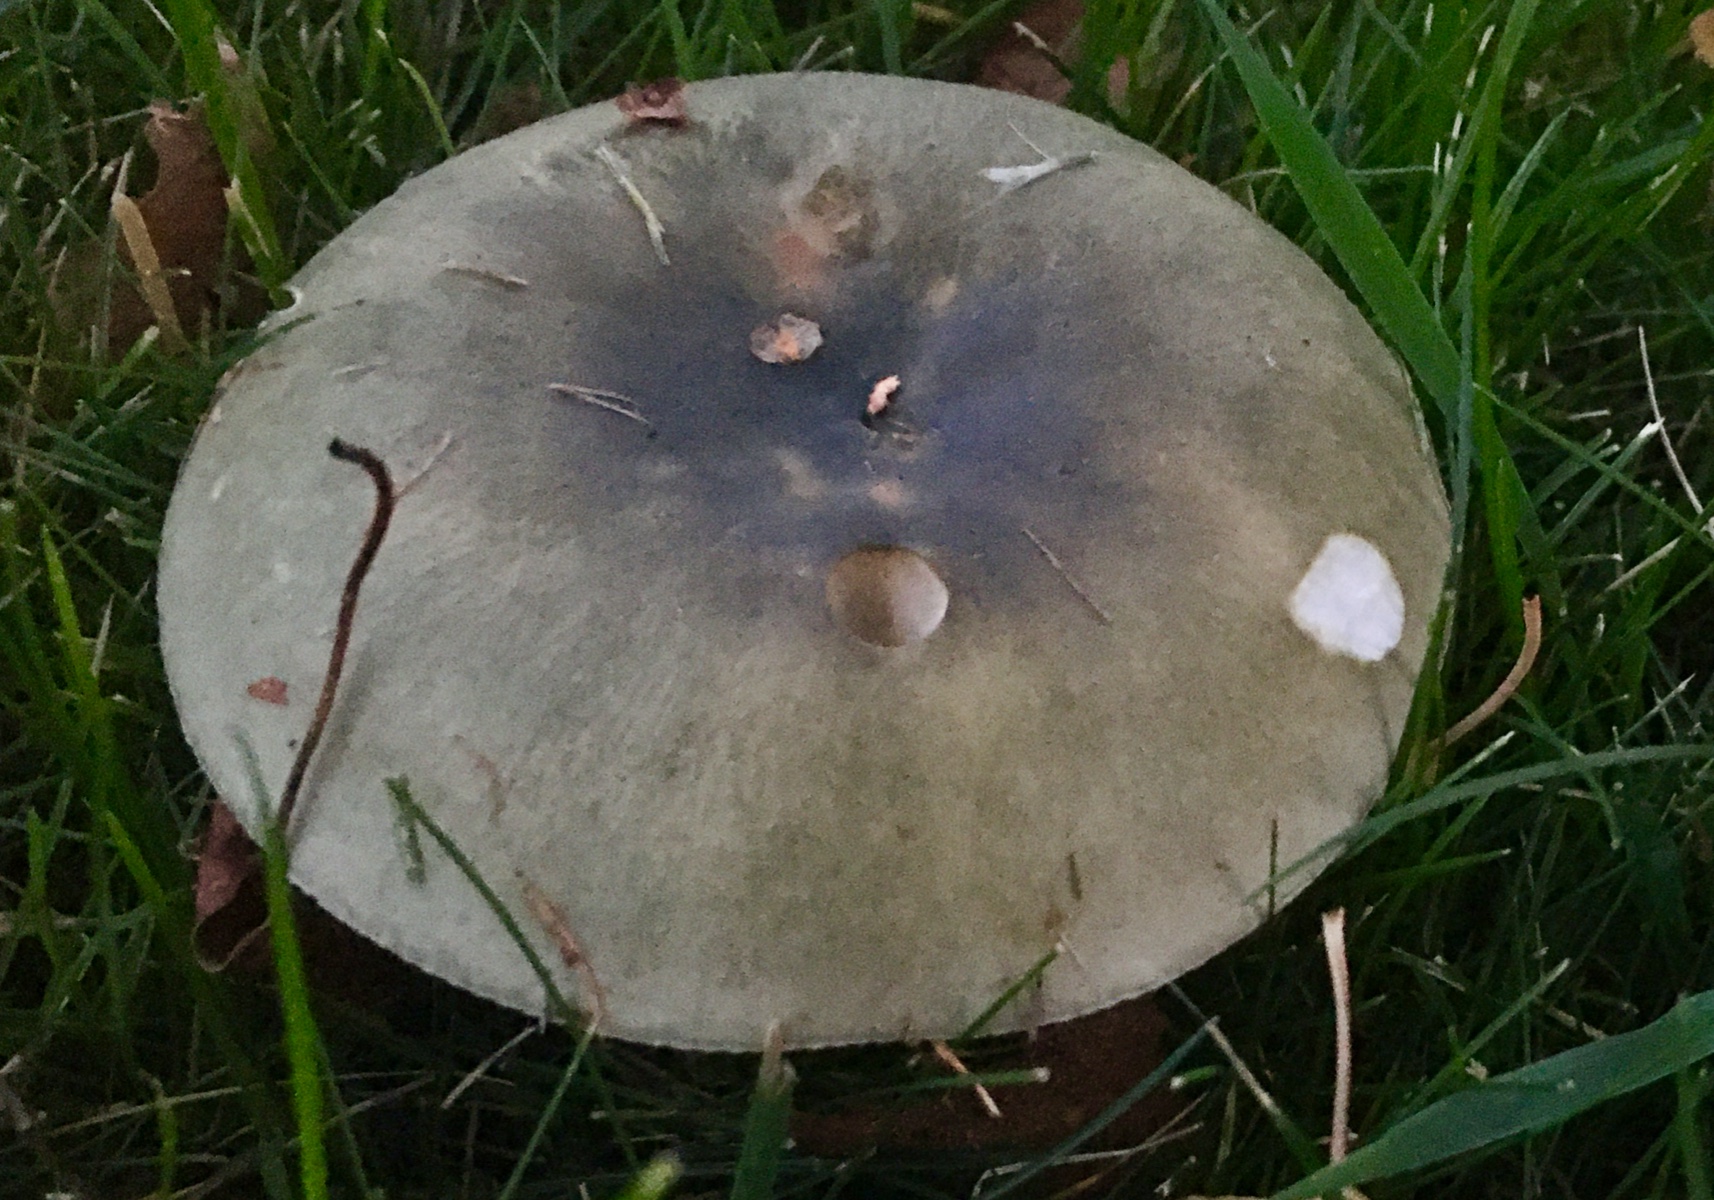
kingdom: Fungi
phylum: Basidiomycota
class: Agaricomycetes
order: Russulales
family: Russulaceae
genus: Russula
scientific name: Russula aeruginea
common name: græsgrøn skørhat
